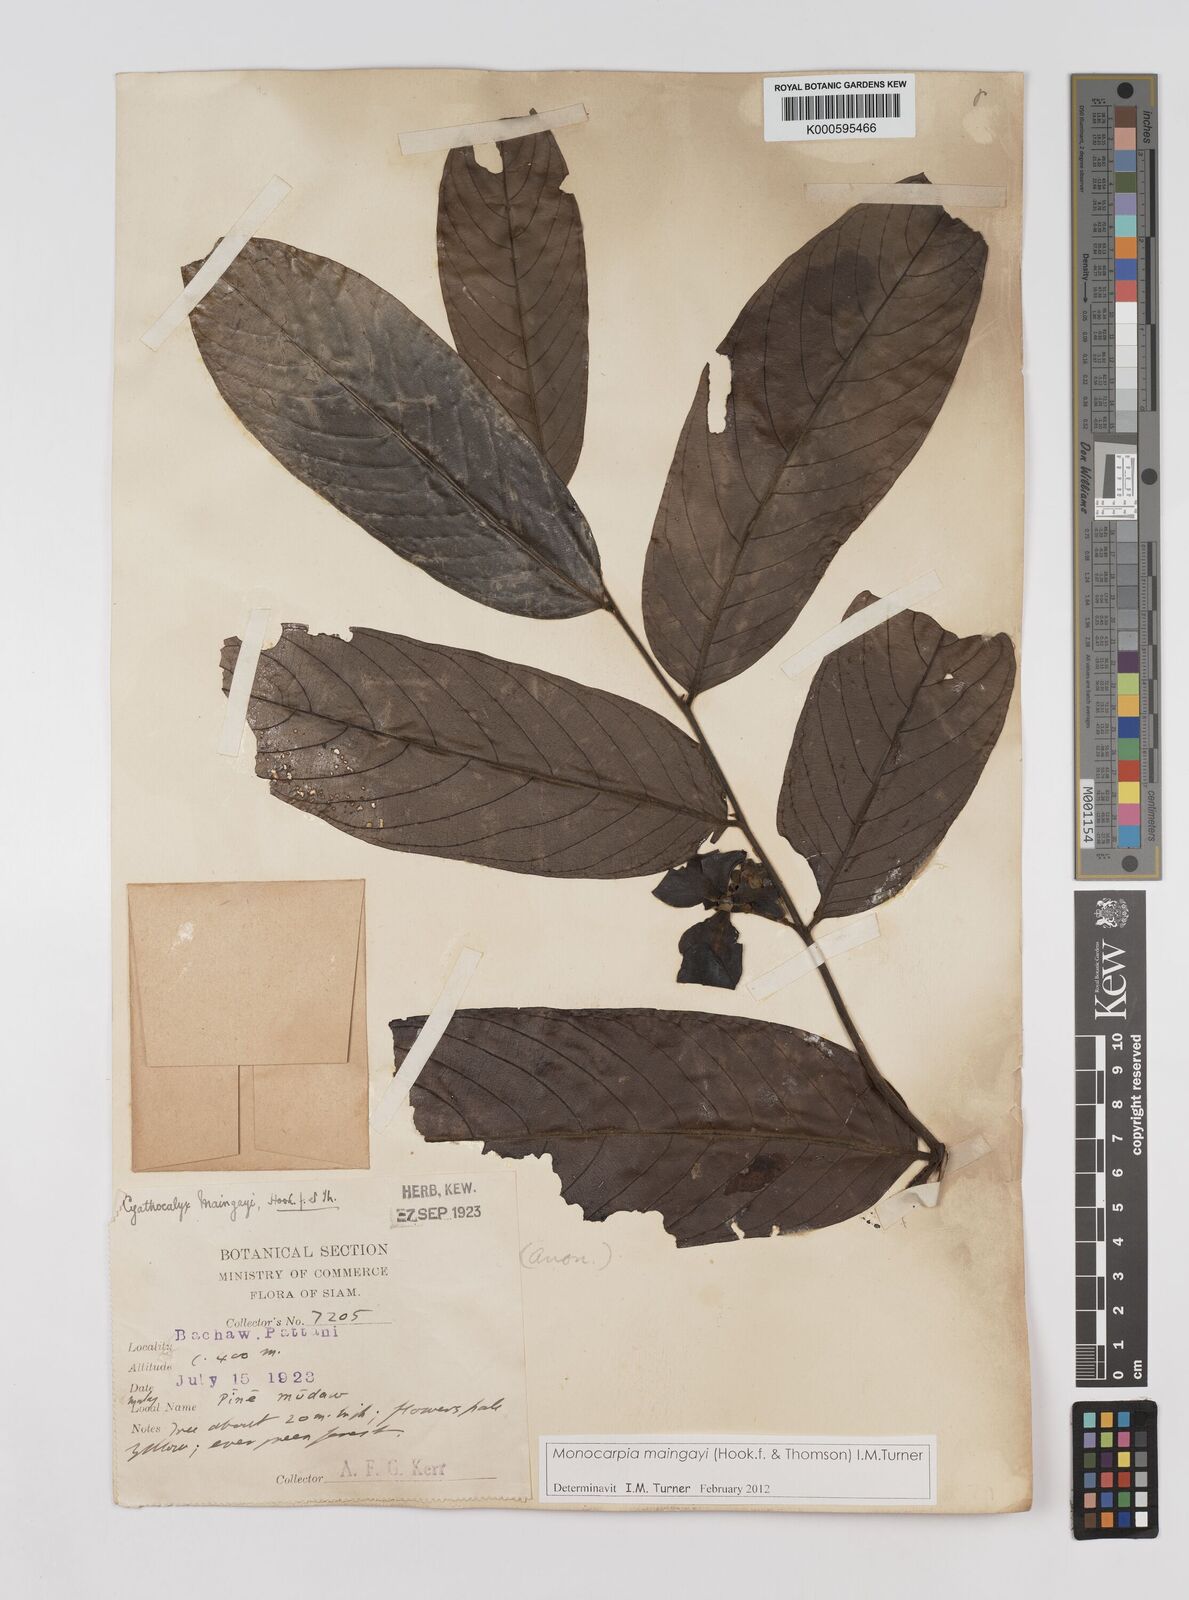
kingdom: Plantae
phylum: Tracheophyta
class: Magnoliopsida
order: Magnoliales
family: Annonaceae
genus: Monocarpia
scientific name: Monocarpia marginalis
